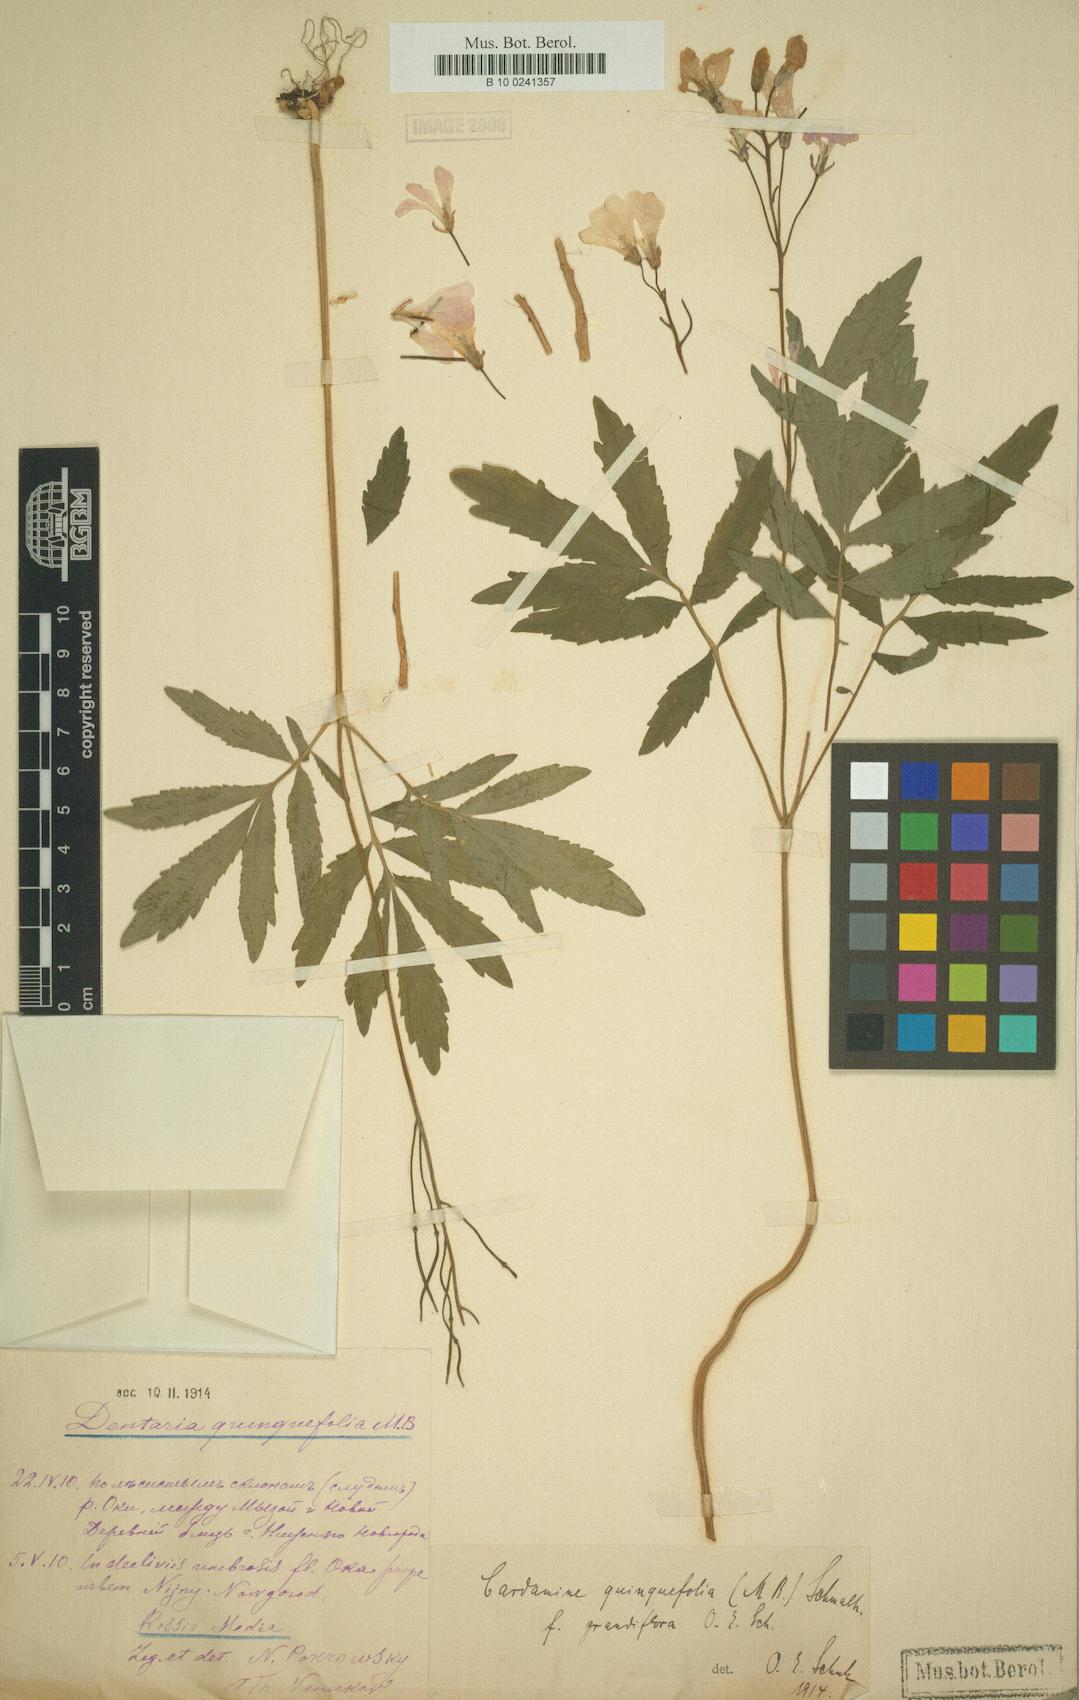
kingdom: Plantae
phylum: Tracheophyta
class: Magnoliopsida
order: Brassicales
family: Brassicaceae
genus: Cardamine
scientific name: Cardamine quinquefolia
